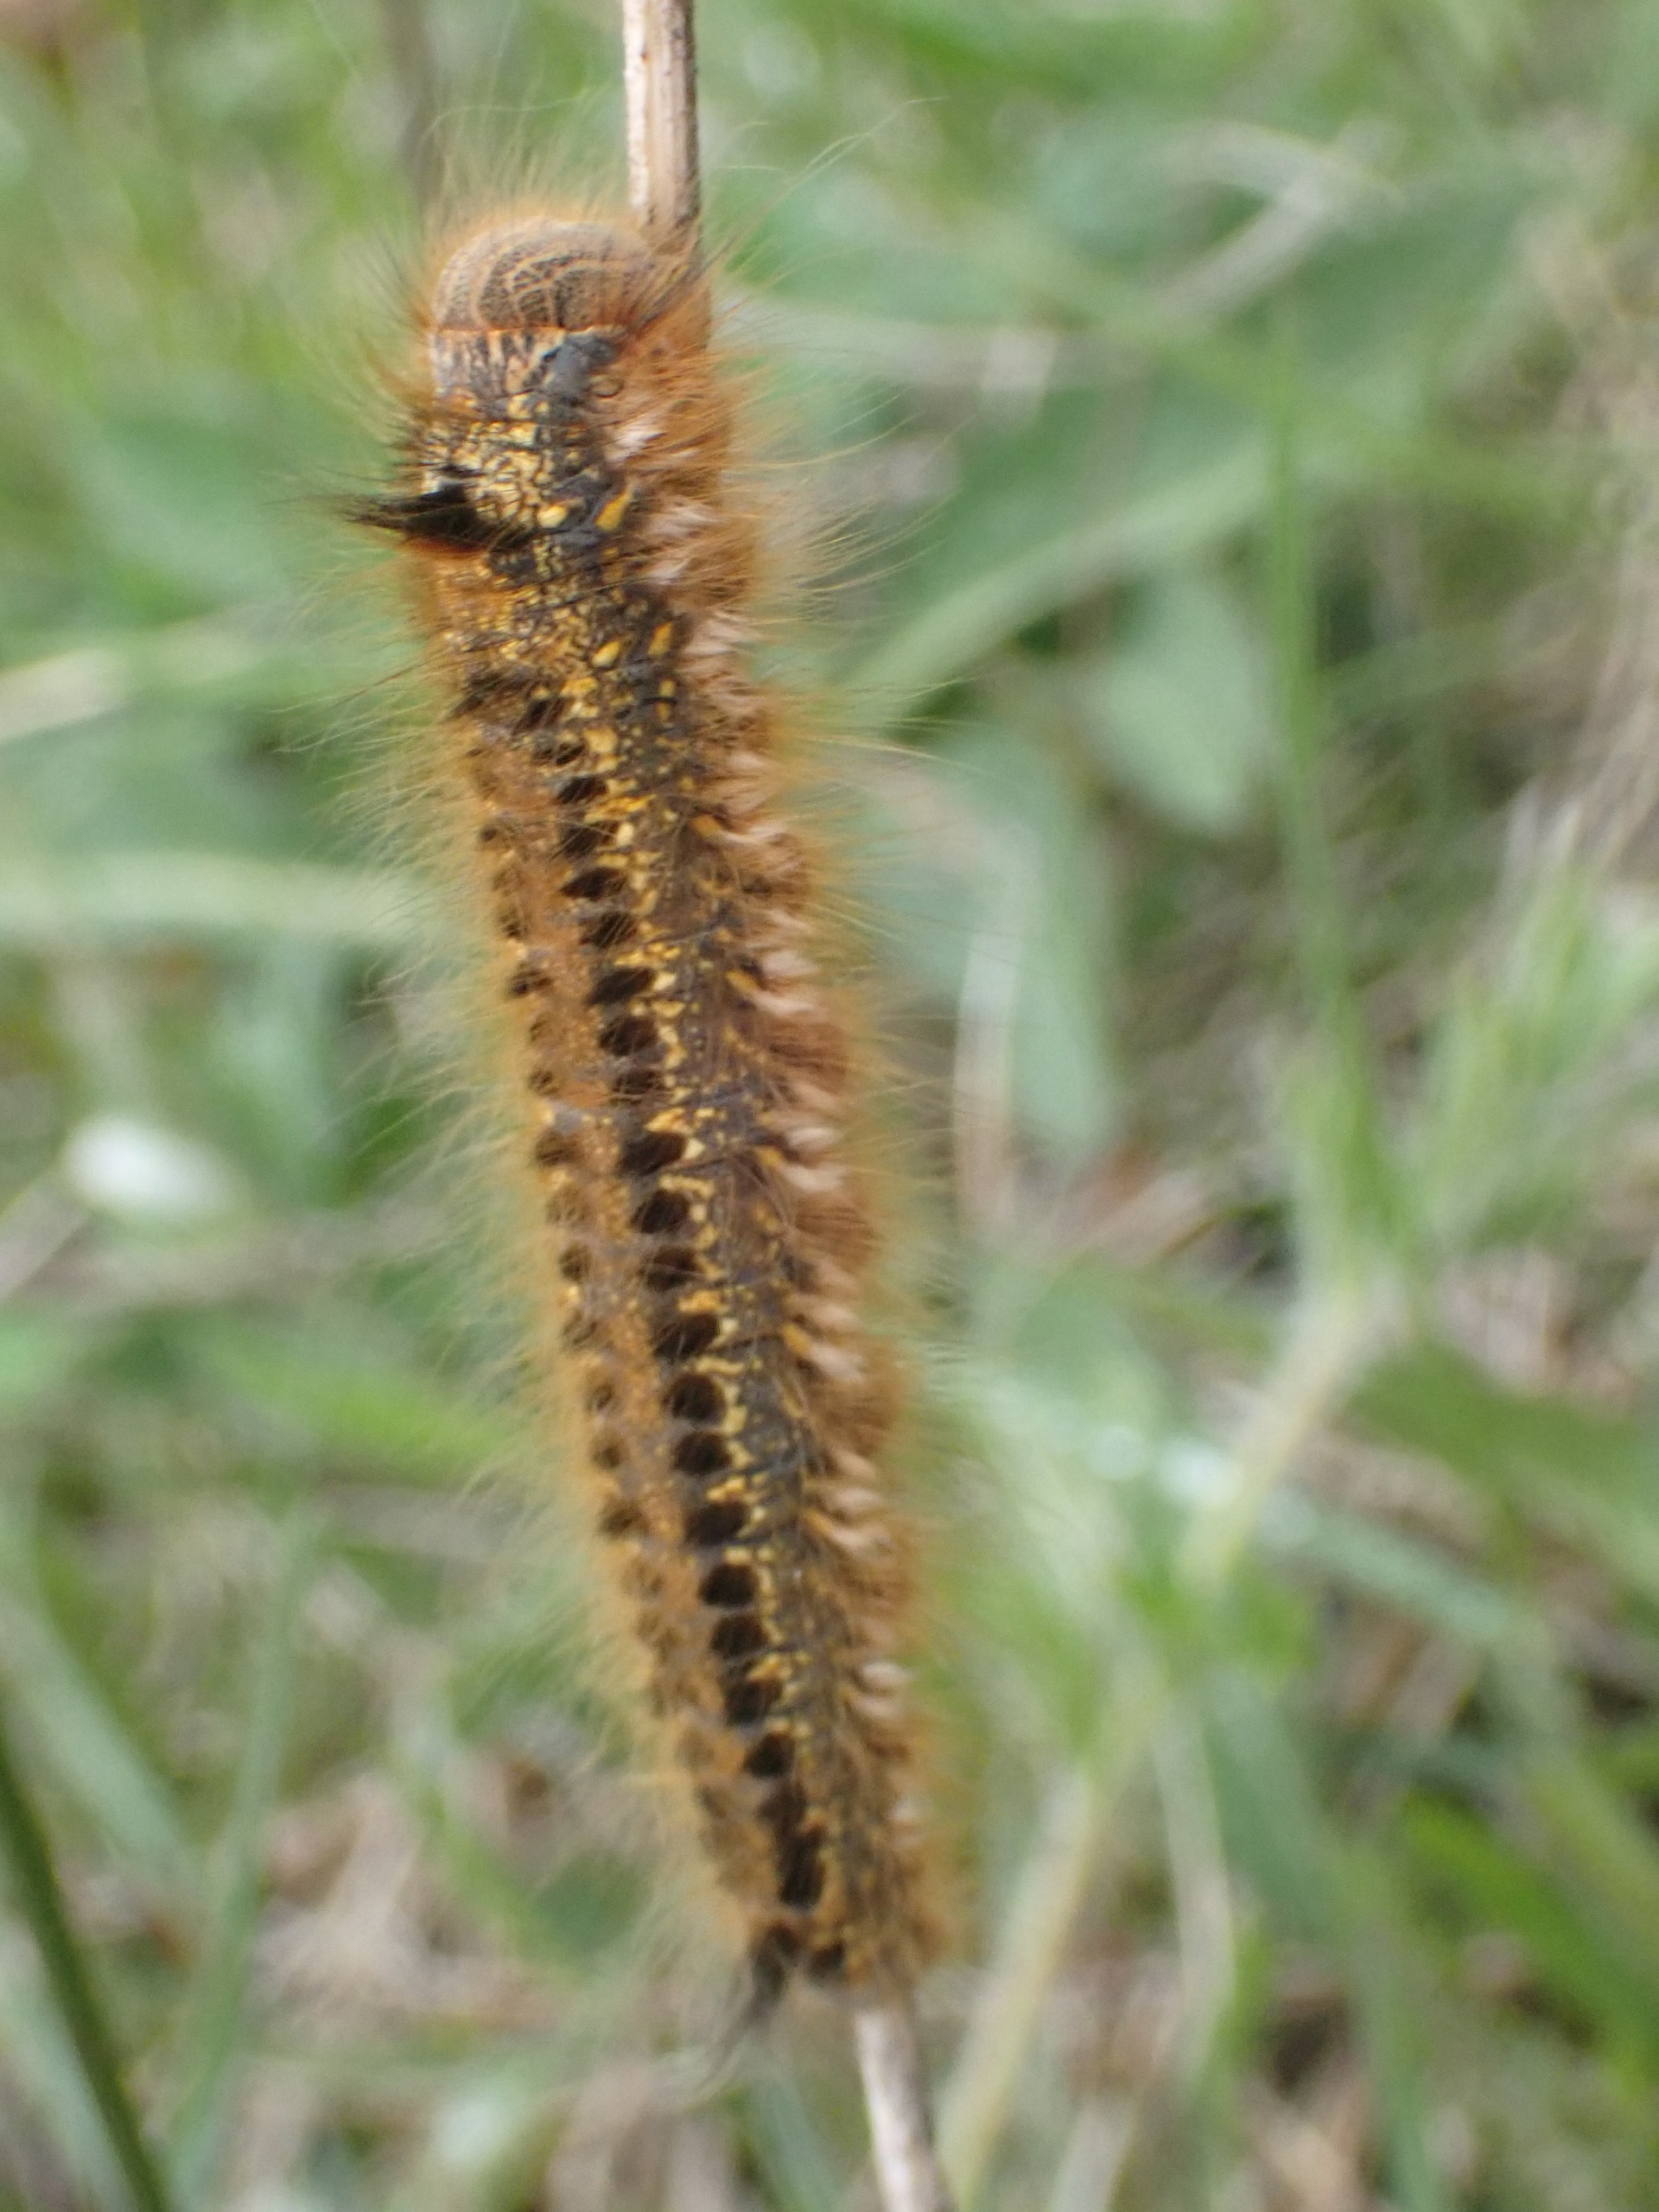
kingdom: Animalia
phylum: Arthropoda
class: Insecta
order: Lepidoptera
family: Lasiocampidae
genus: Euthrix
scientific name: Euthrix potatoria
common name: Græsspinder
